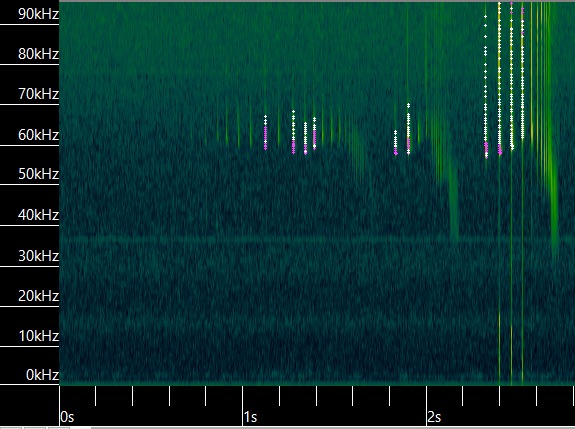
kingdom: Animalia
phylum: Chordata
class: Mammalia
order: Chiroptera
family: Vespertilionidae
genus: Pipistrellus
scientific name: Pipistrellus pygmaeus
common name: Dværgflagermus
